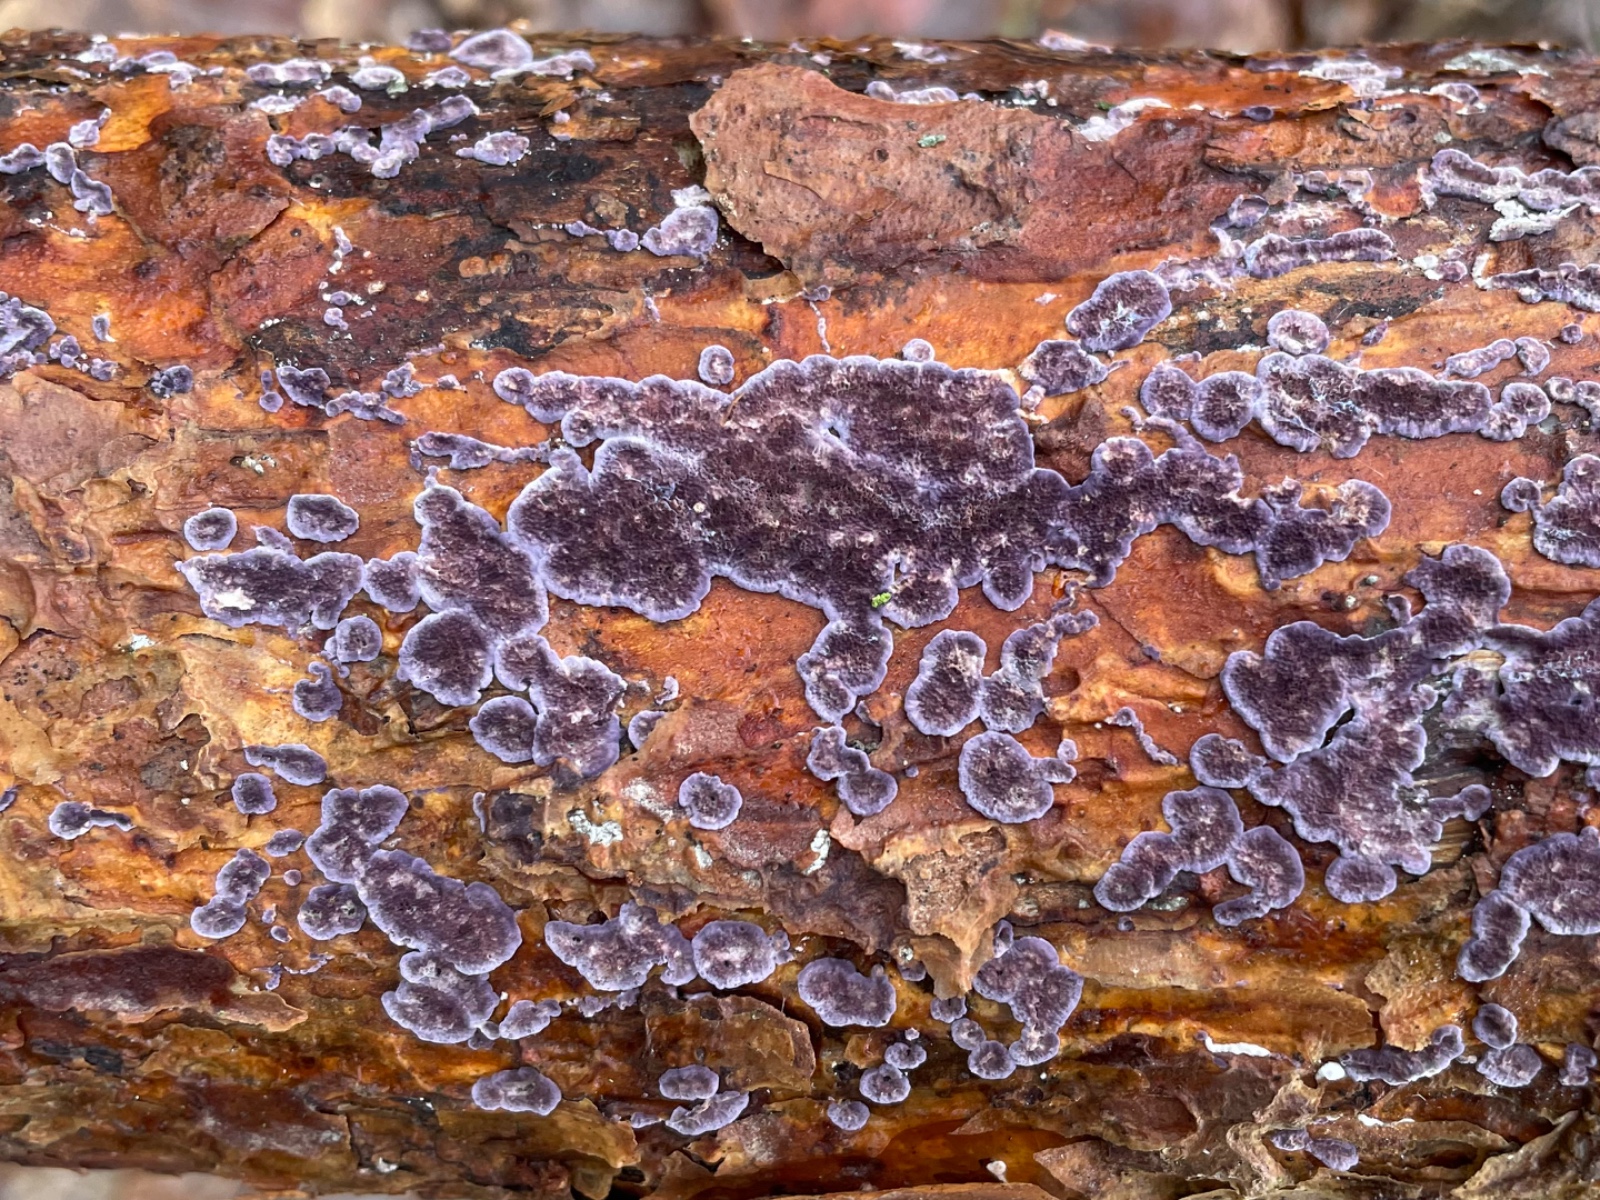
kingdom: Fungi
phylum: Basidiomycota
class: Agaricomycetes
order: Hymenochaetales
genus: Trichaptum
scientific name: Trichaptum abietinum
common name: almindelig violporesvamp
